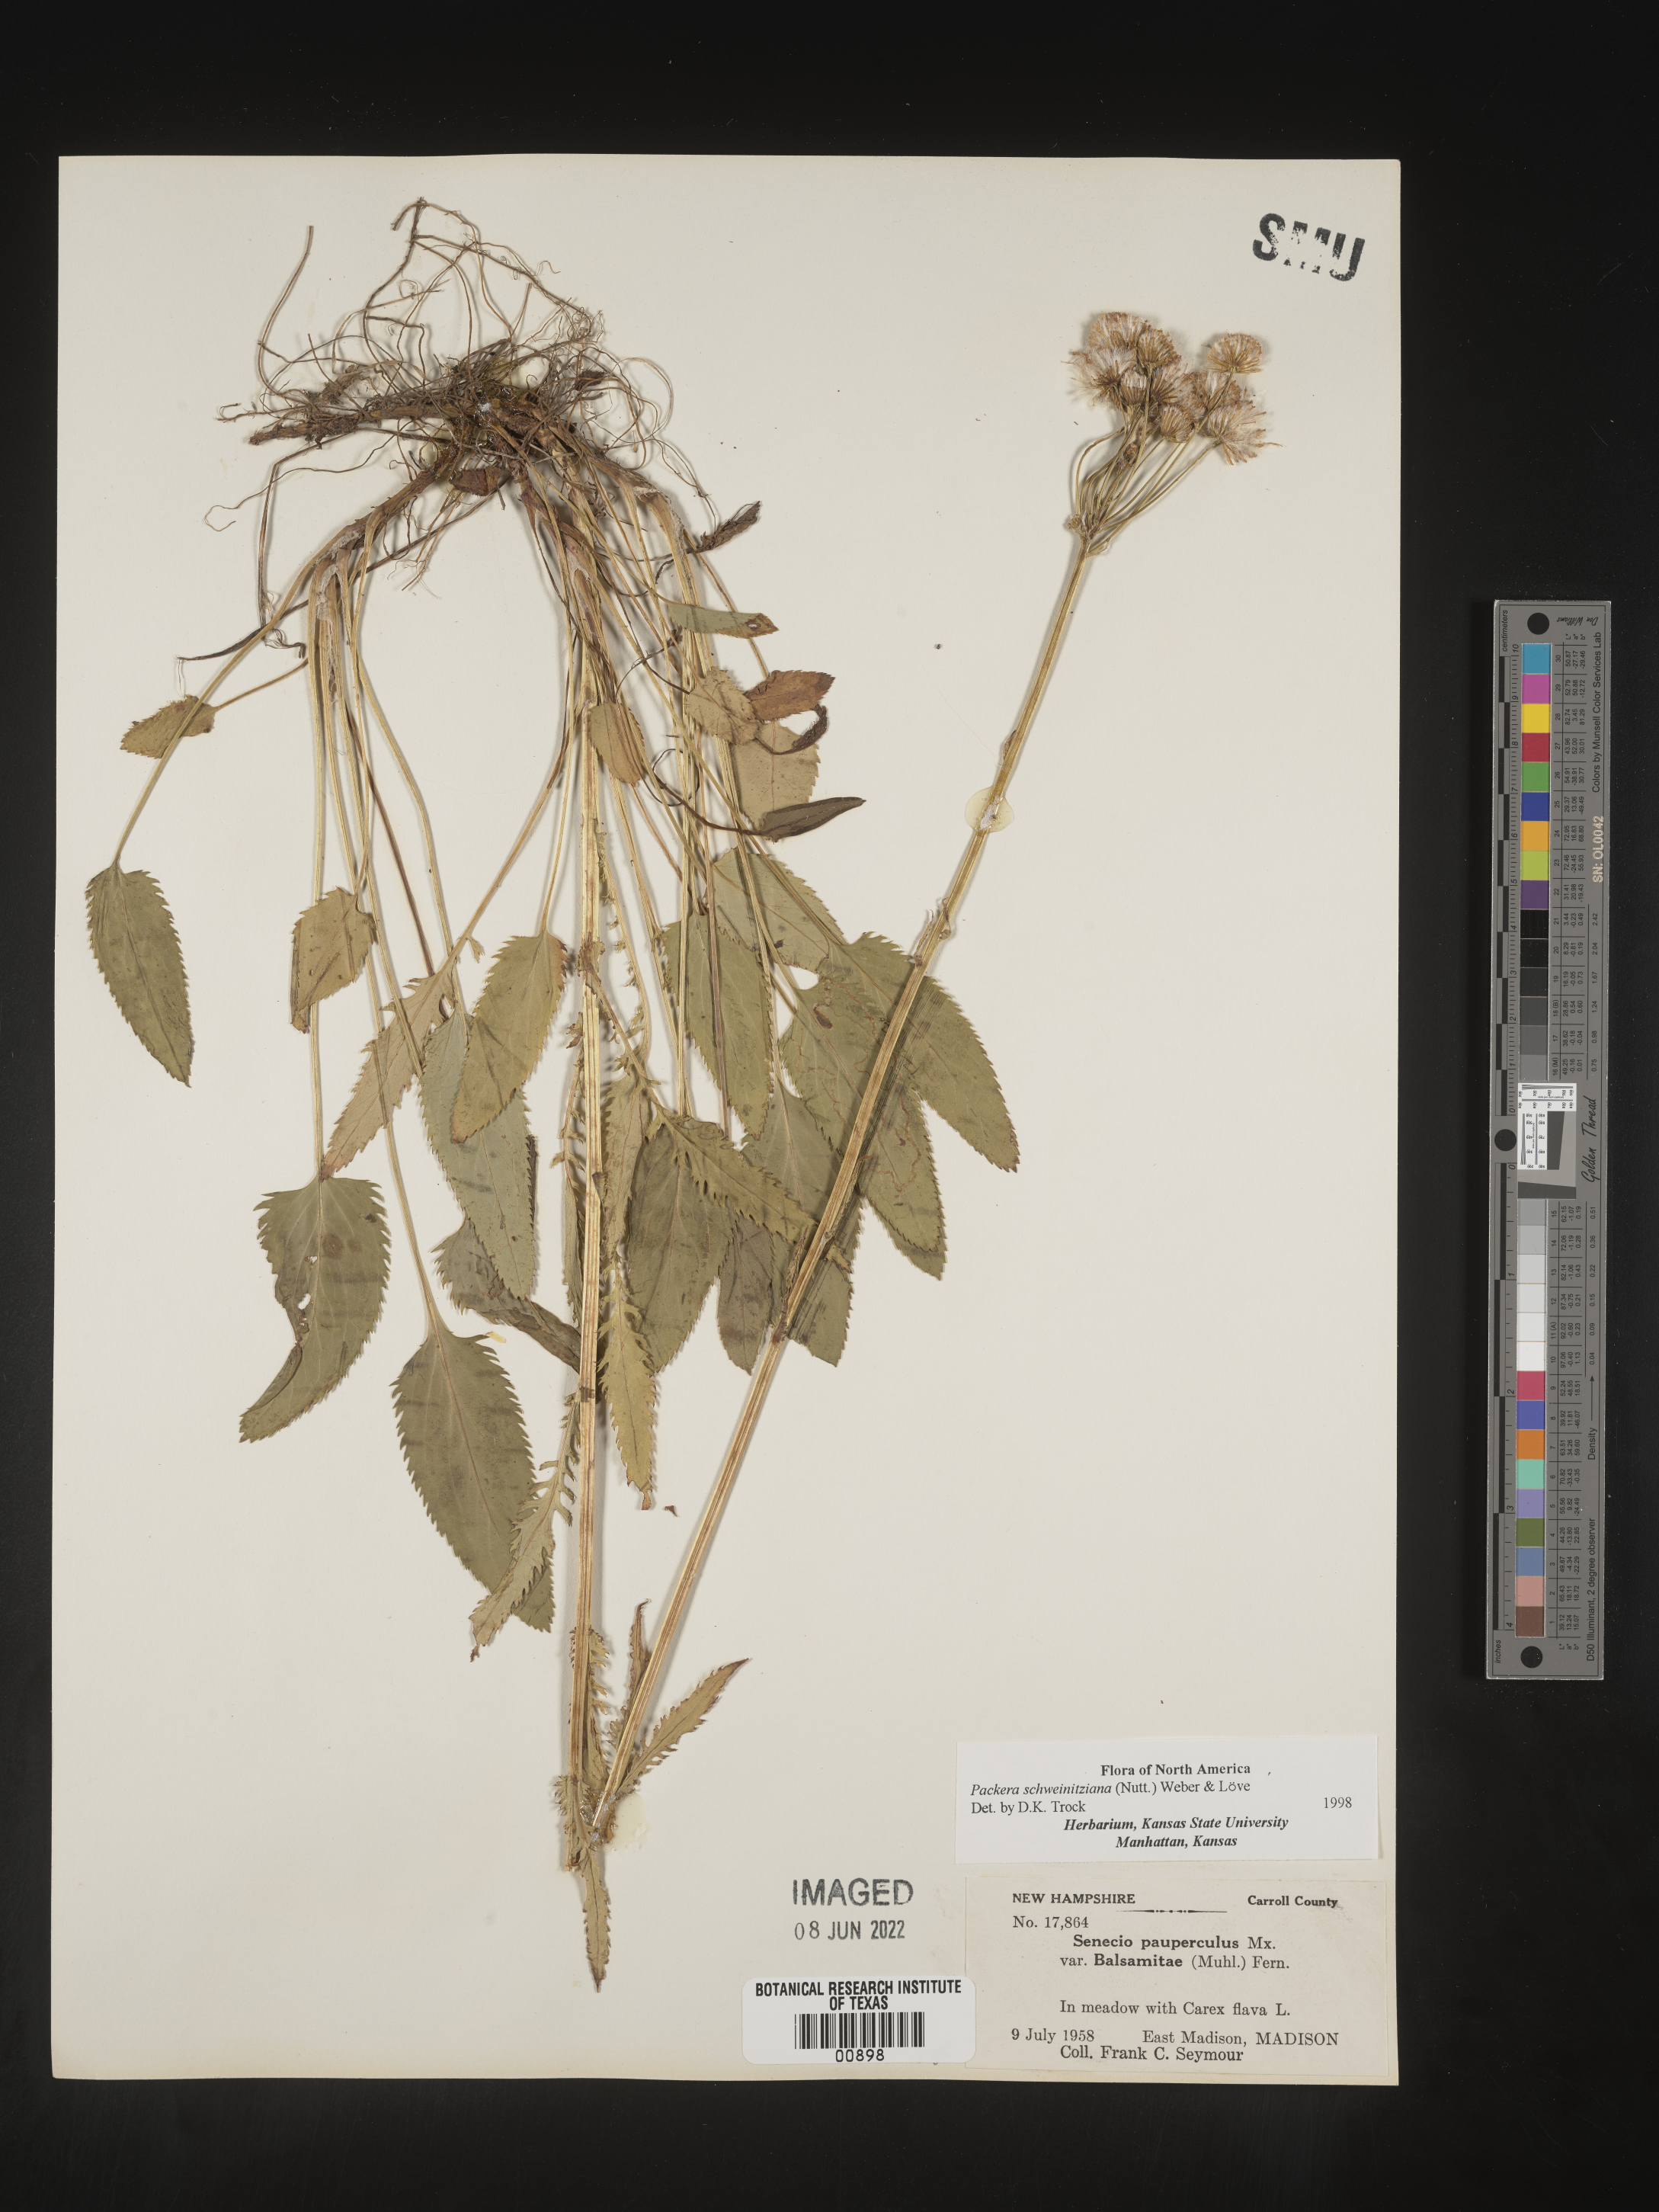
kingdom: Plantae
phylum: Tracheophyta
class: Magnoliopsida
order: Asterales
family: Asteraceae
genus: Packera
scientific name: Packera schweinitziana
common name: Schweinitz's ragwort
